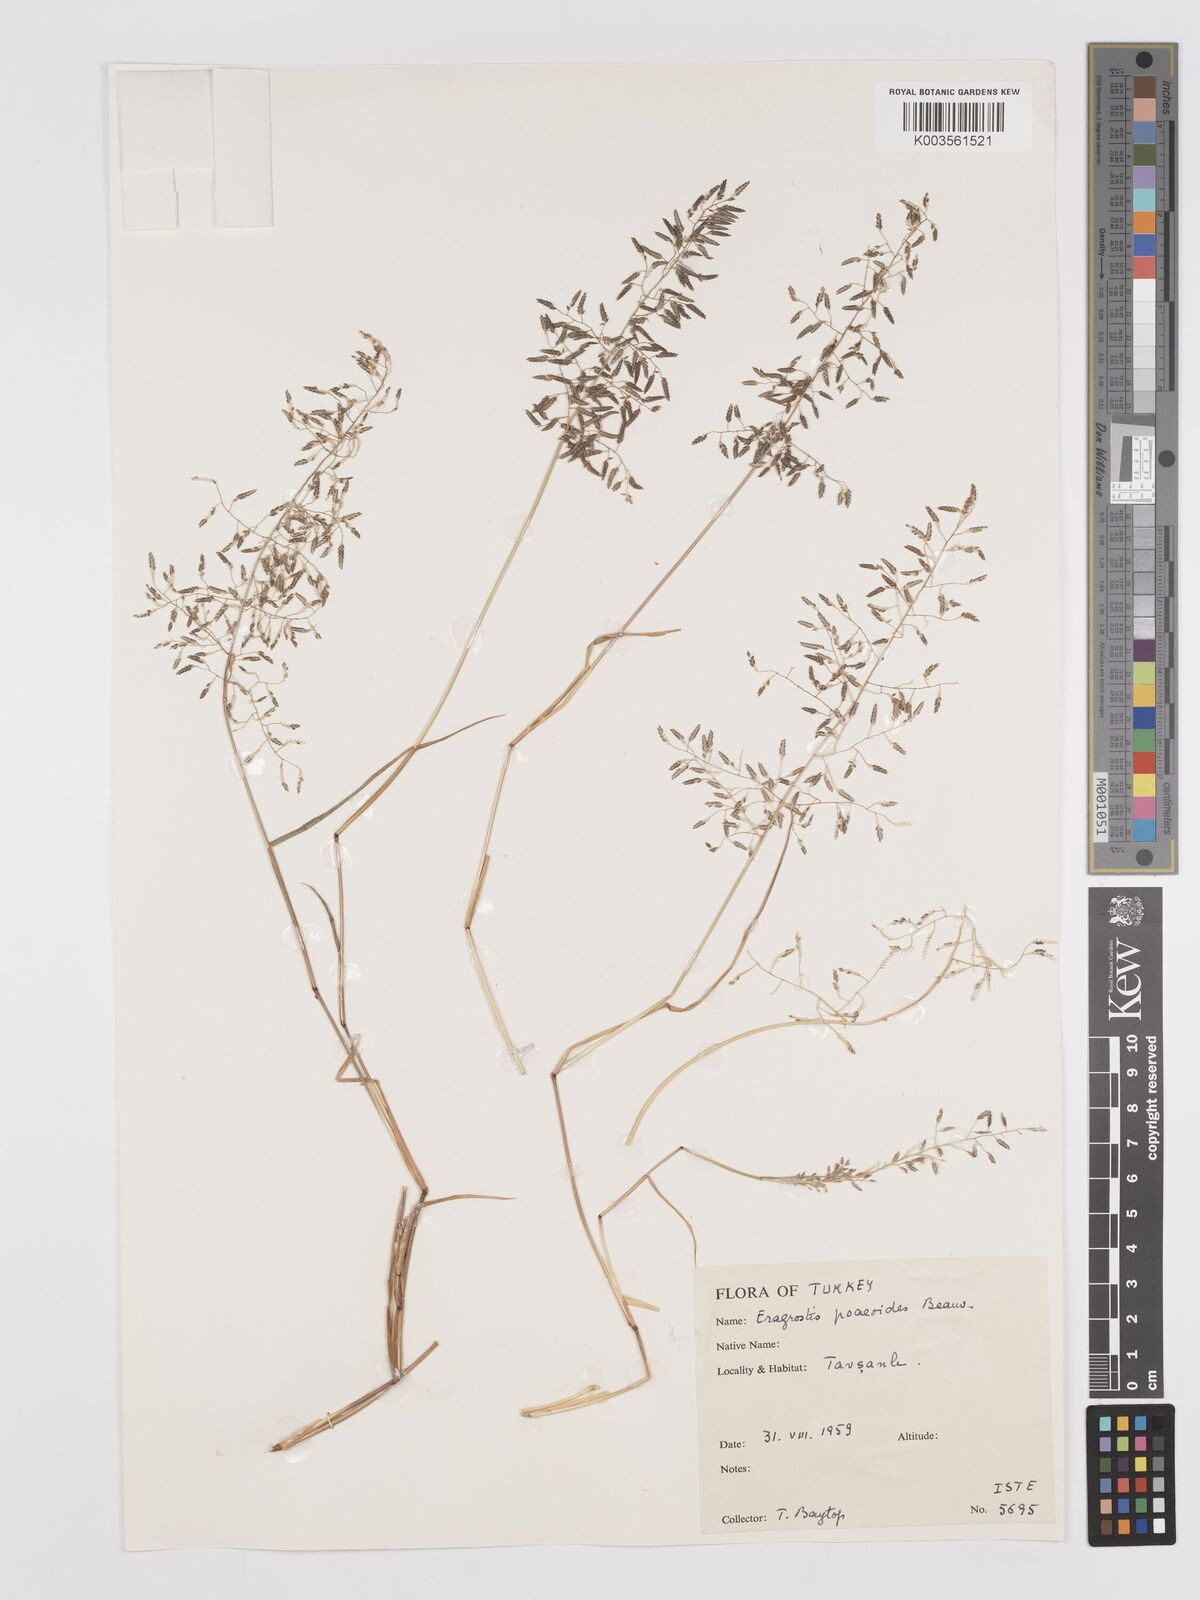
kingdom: Plantae
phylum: Tracheophyta
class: Liliopsida
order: Poales
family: Poaceae
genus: Eragrostis
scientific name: Eragrostis minor
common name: Small love-grass
